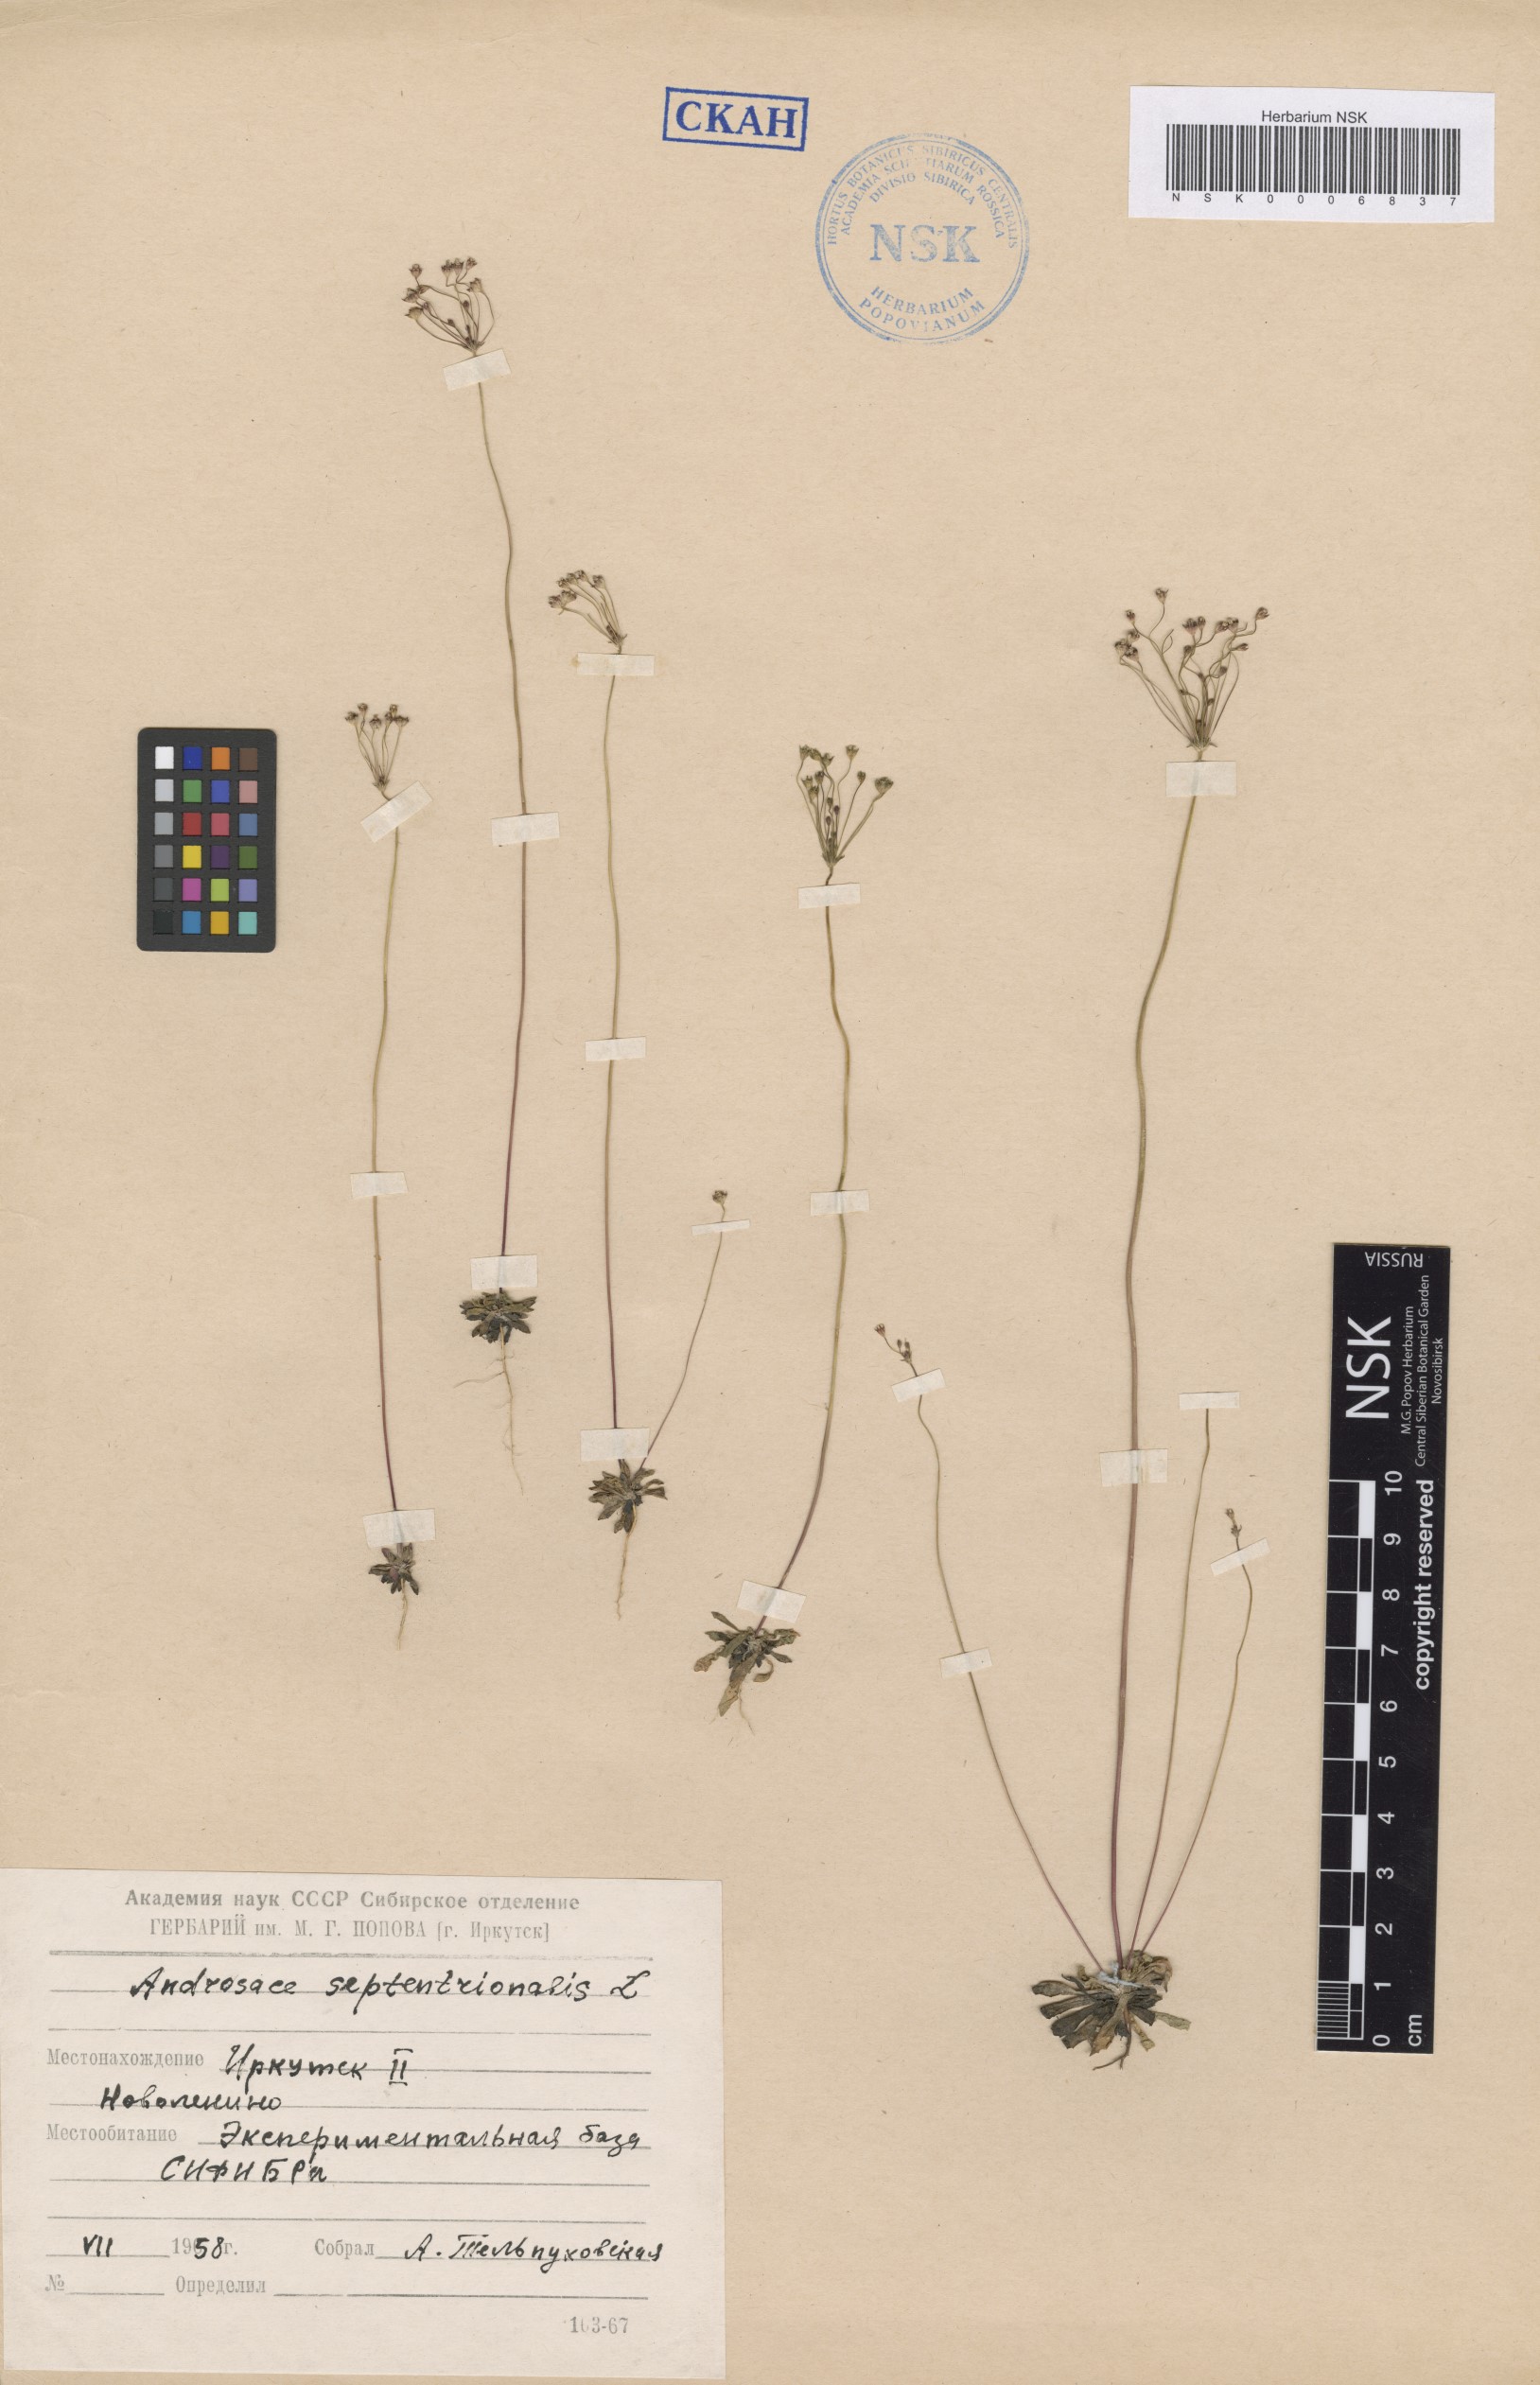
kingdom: Plantae
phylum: Tracheophyta
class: Magnoliopsida
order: Ericales
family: Primulaceae
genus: Androsace
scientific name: Androsace septentrionalis
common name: Hairy northern fairy-candelabra
